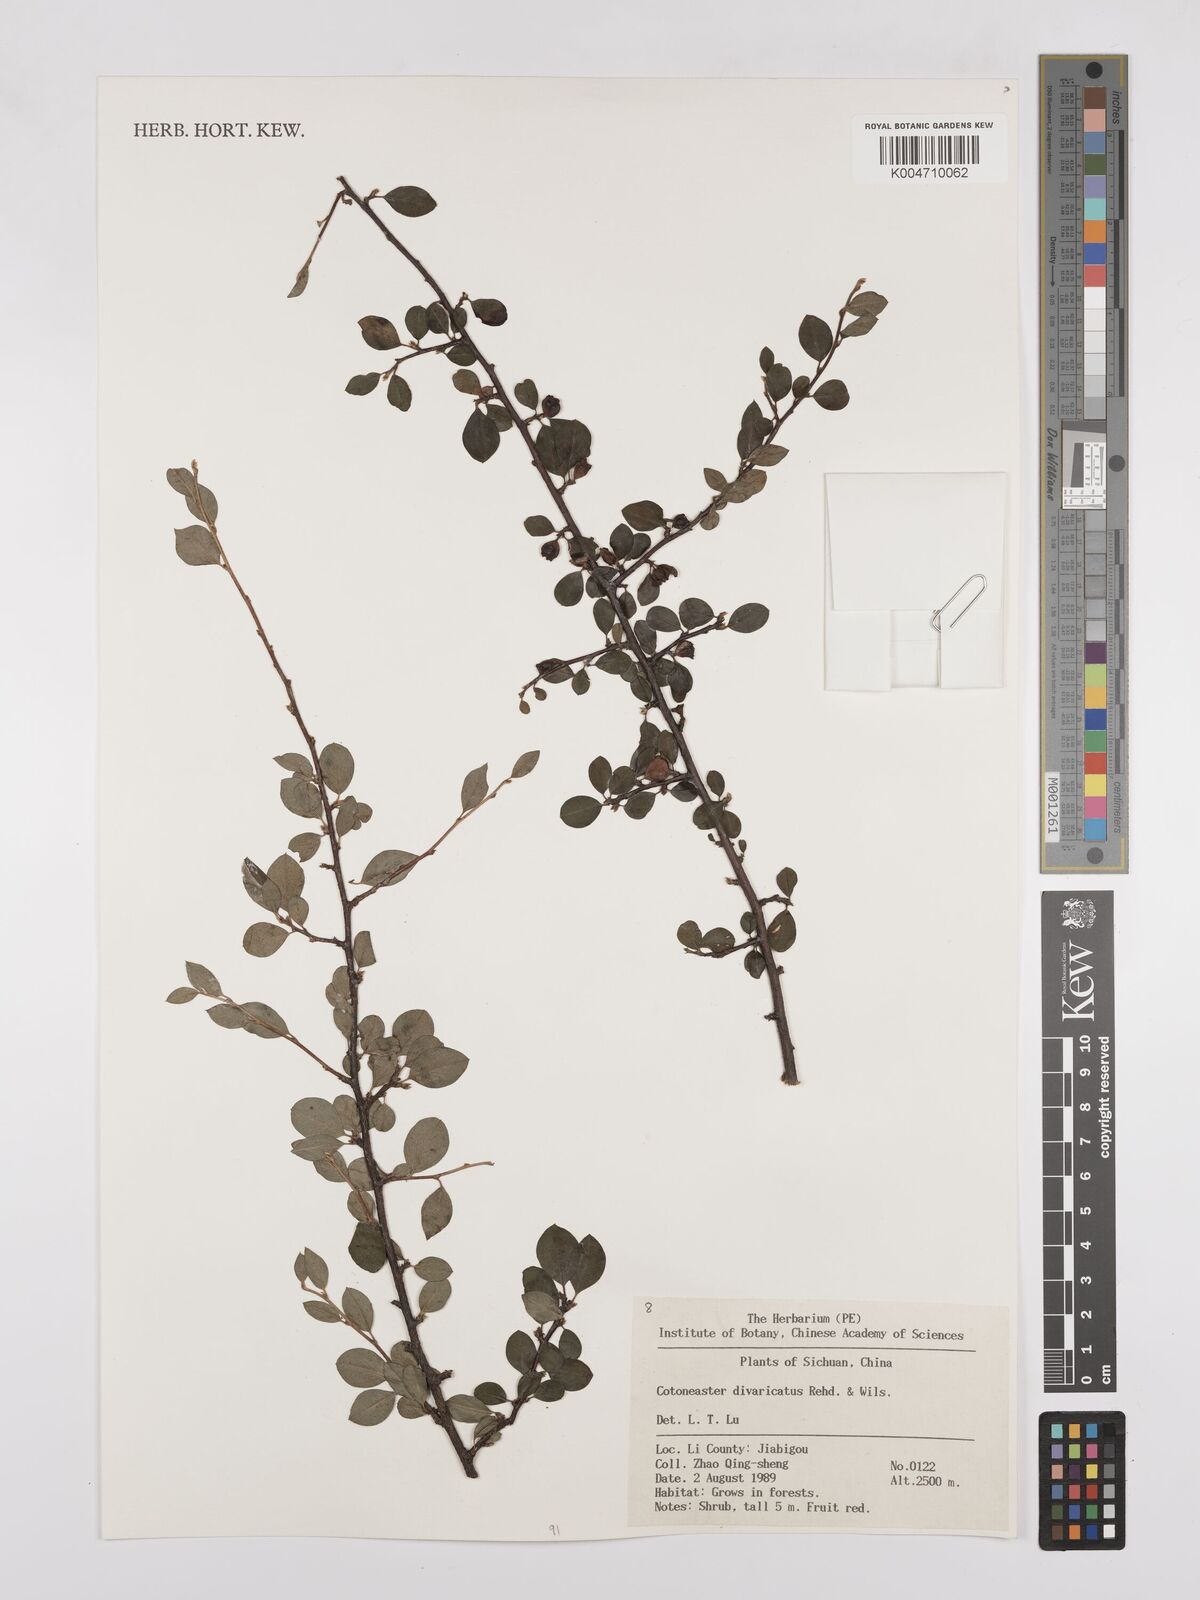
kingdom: Plantae
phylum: Tracheophyta
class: Magnoliopsida
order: Rosales
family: Rosaceae
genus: Cotoneaster
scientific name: Cotoneaster divaricatus
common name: Spreading cotoneaster
